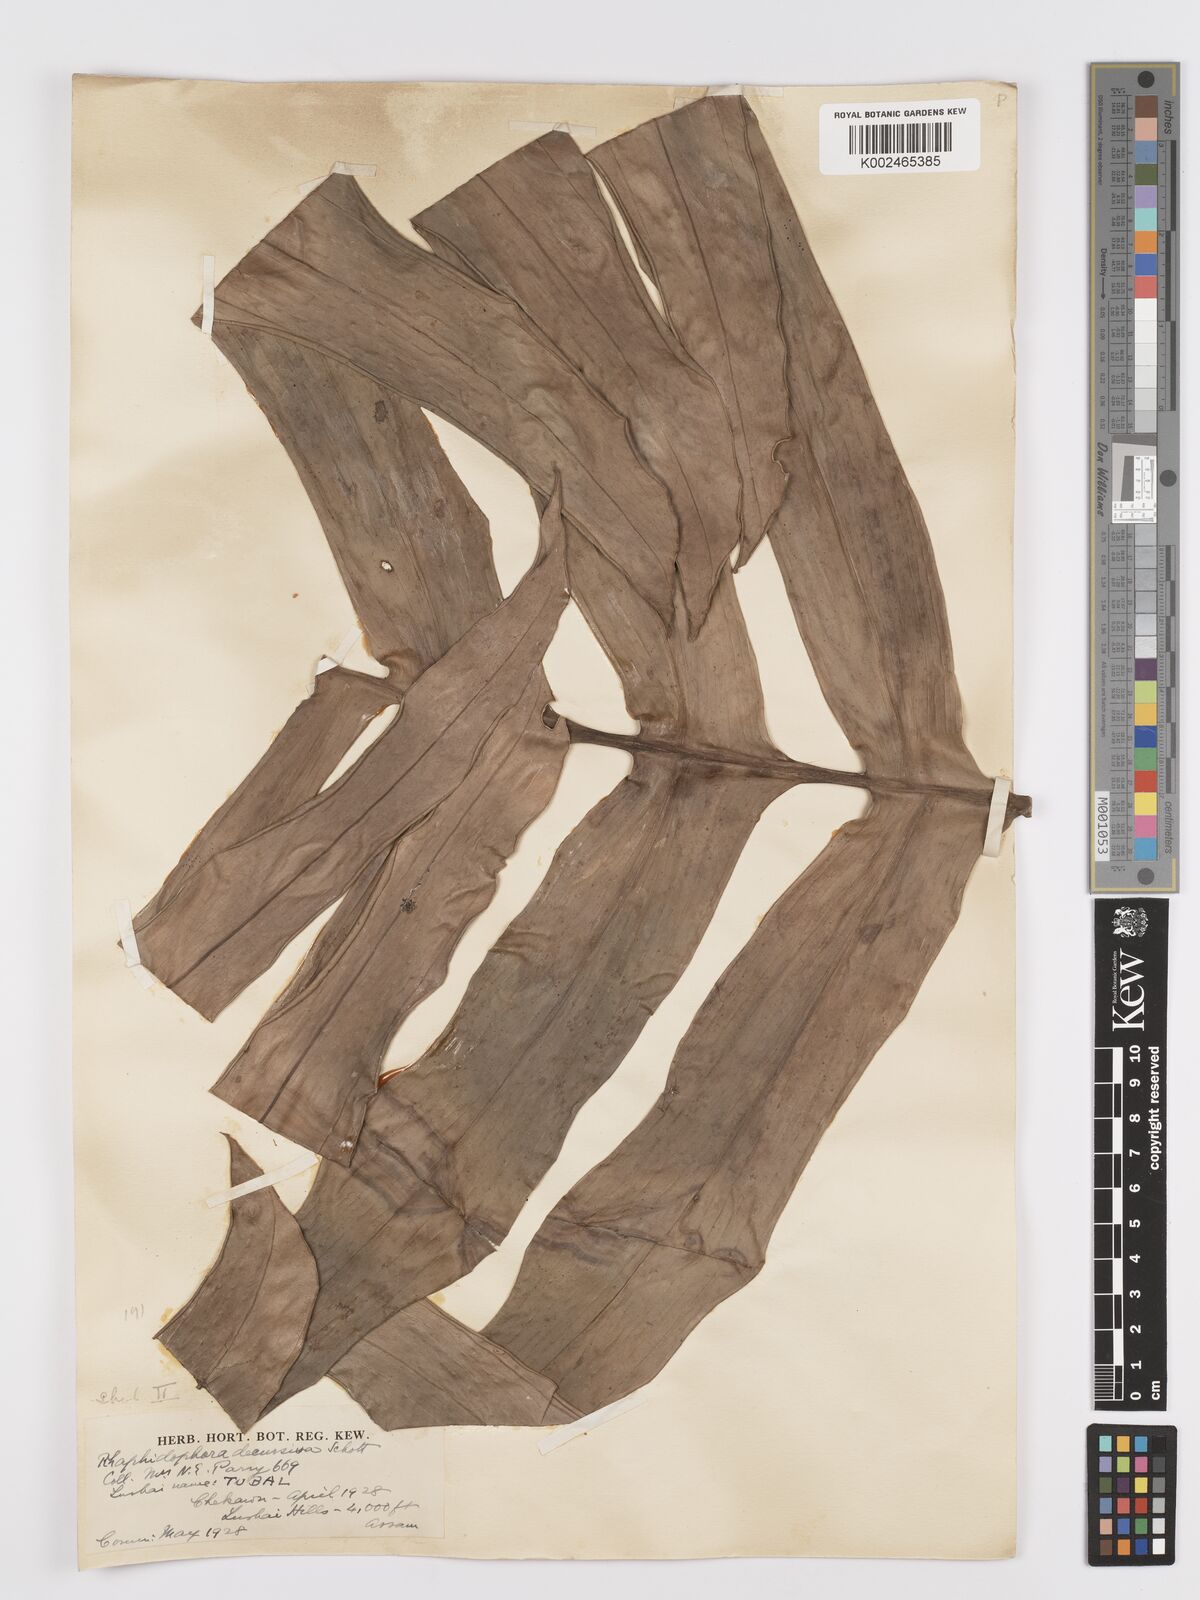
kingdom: Plantae
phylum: Tracheophyta
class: Liliopsida
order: Alismatales
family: Araceae
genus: Rhaphidophora
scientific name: Rhaphidophora decursiva
